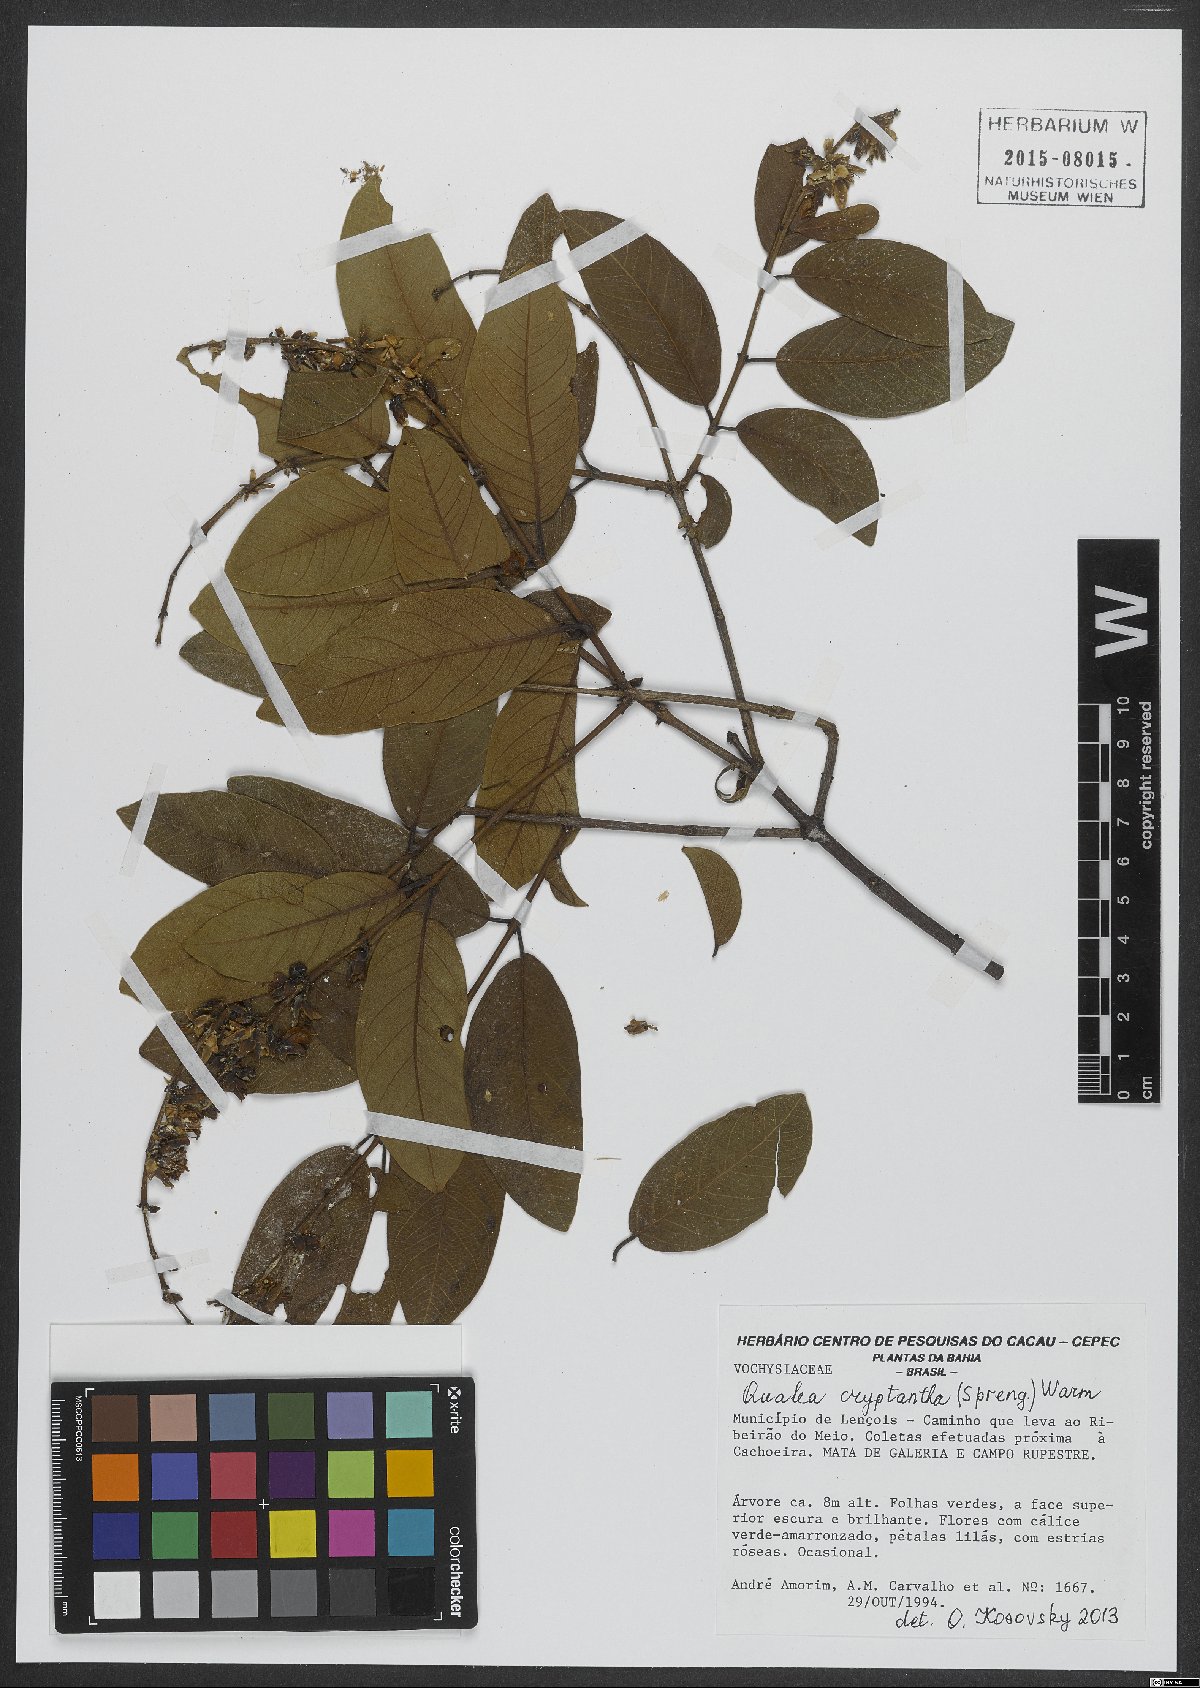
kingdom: Plantae
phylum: Tracheophyta
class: Magnoliopsida
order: Myrtales
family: Vochysiaceae
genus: Qualea
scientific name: Qualea cryptantha
